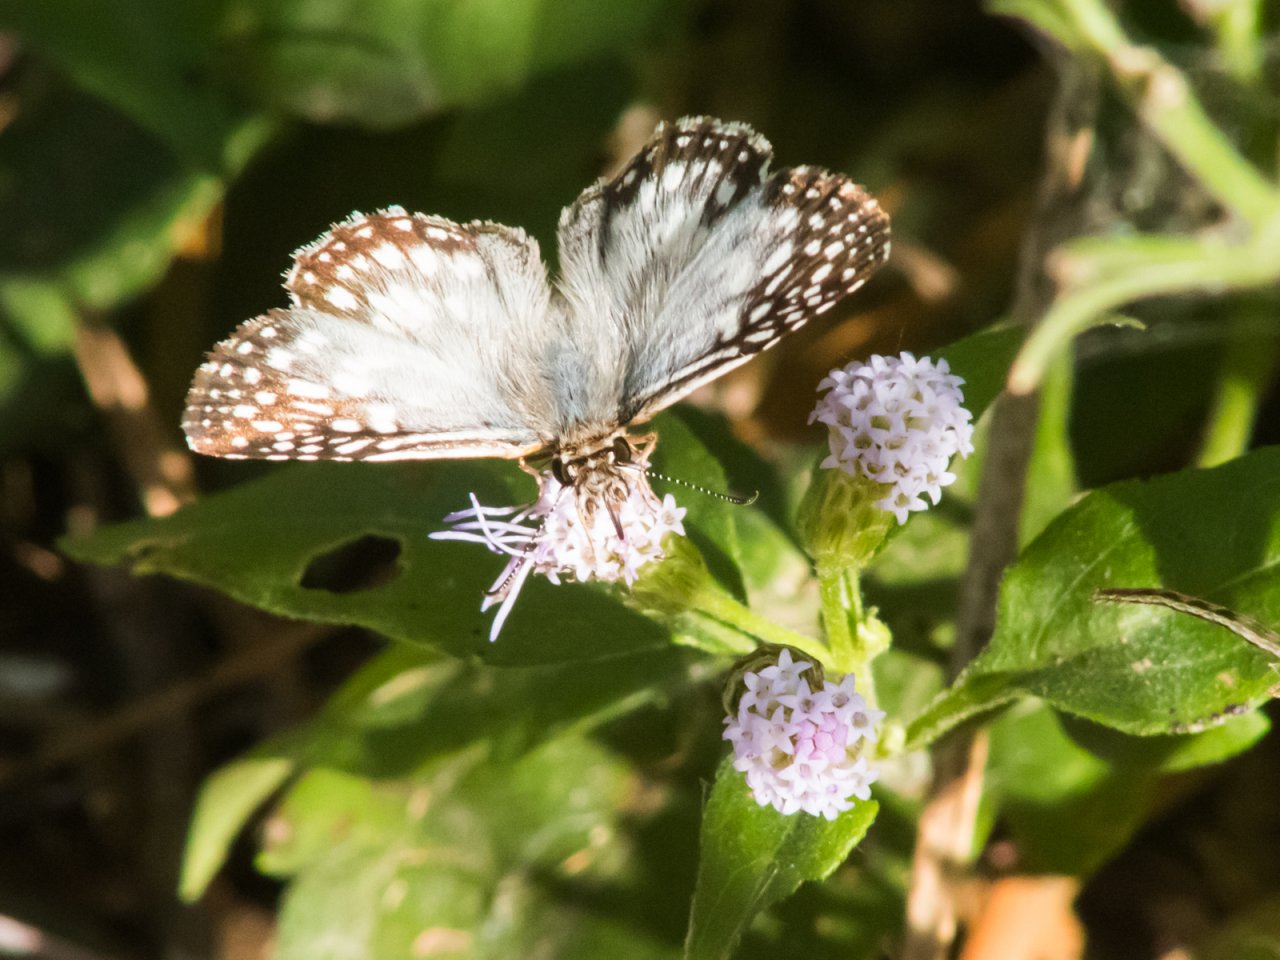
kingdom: Animalia
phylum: Arthropoda
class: Insecta
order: Lepidoptera
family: Hesperiidae
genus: Pyrgus
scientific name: Pyrgus oileus
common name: Tropical Checkered-Skipper
